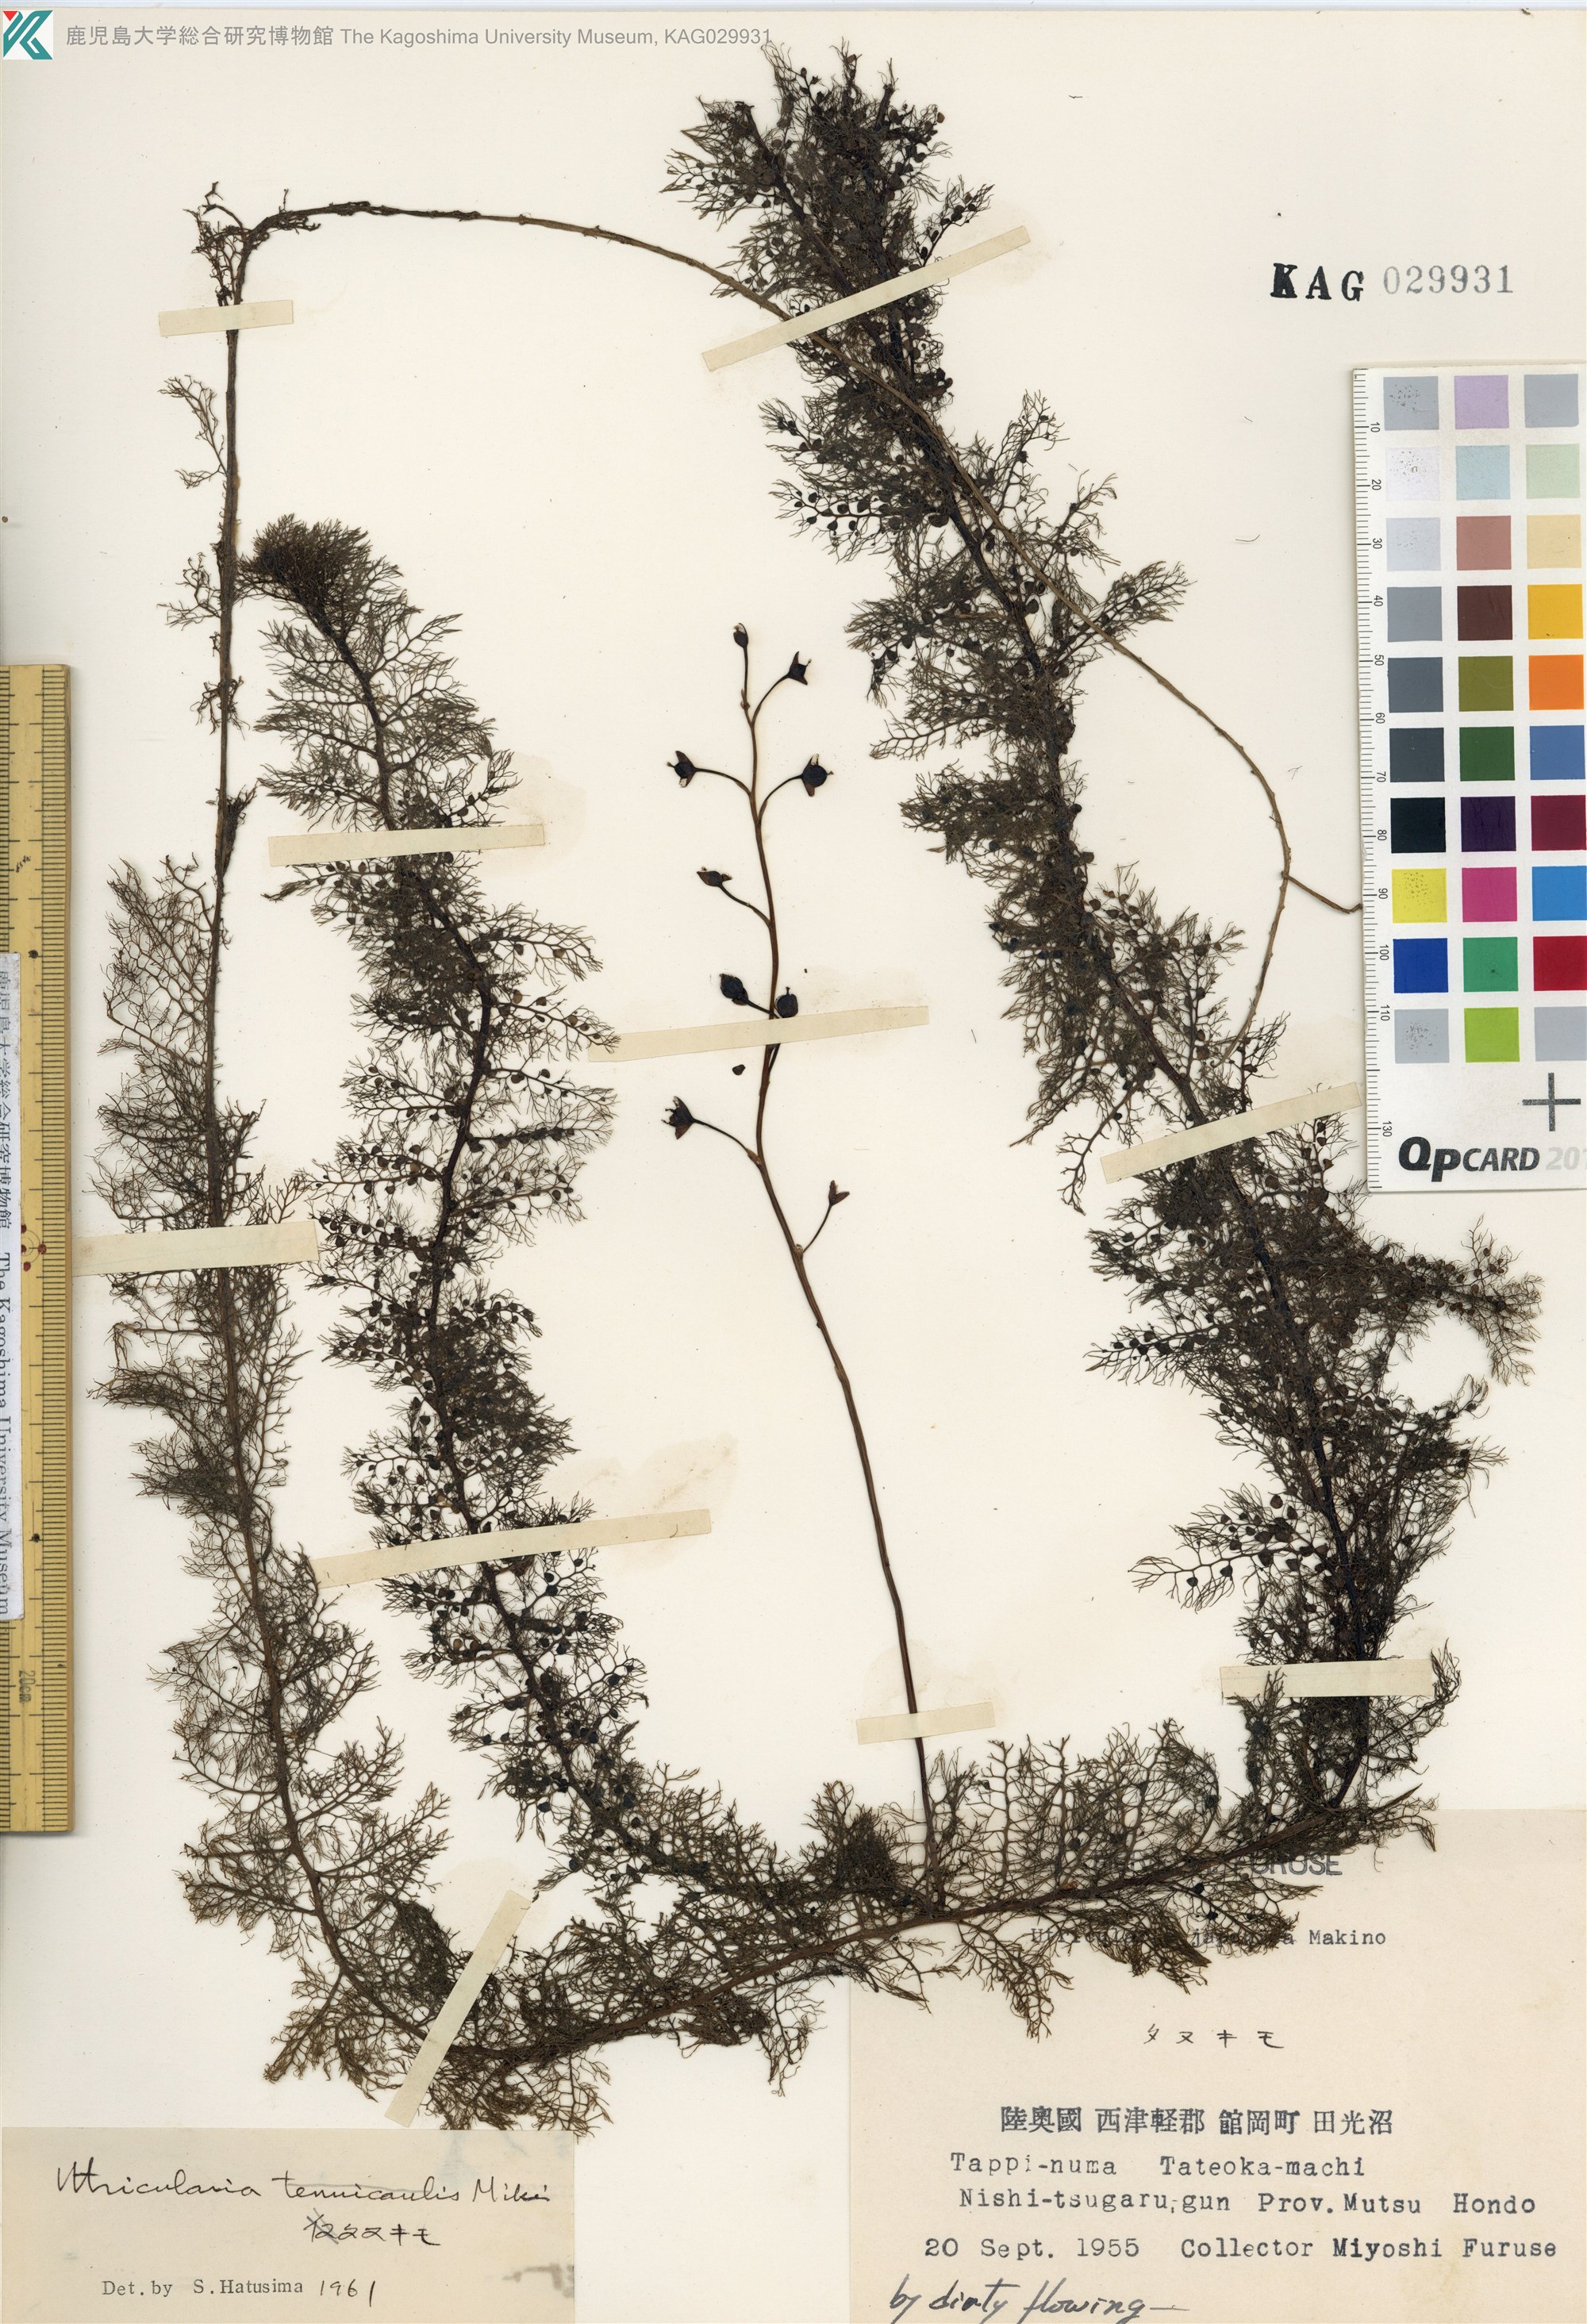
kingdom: Plantae
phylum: Tracheophyta
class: Magnoliopsida
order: Lamiales
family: Lentibulariaceae
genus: Utricularia
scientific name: Utricularia australis
